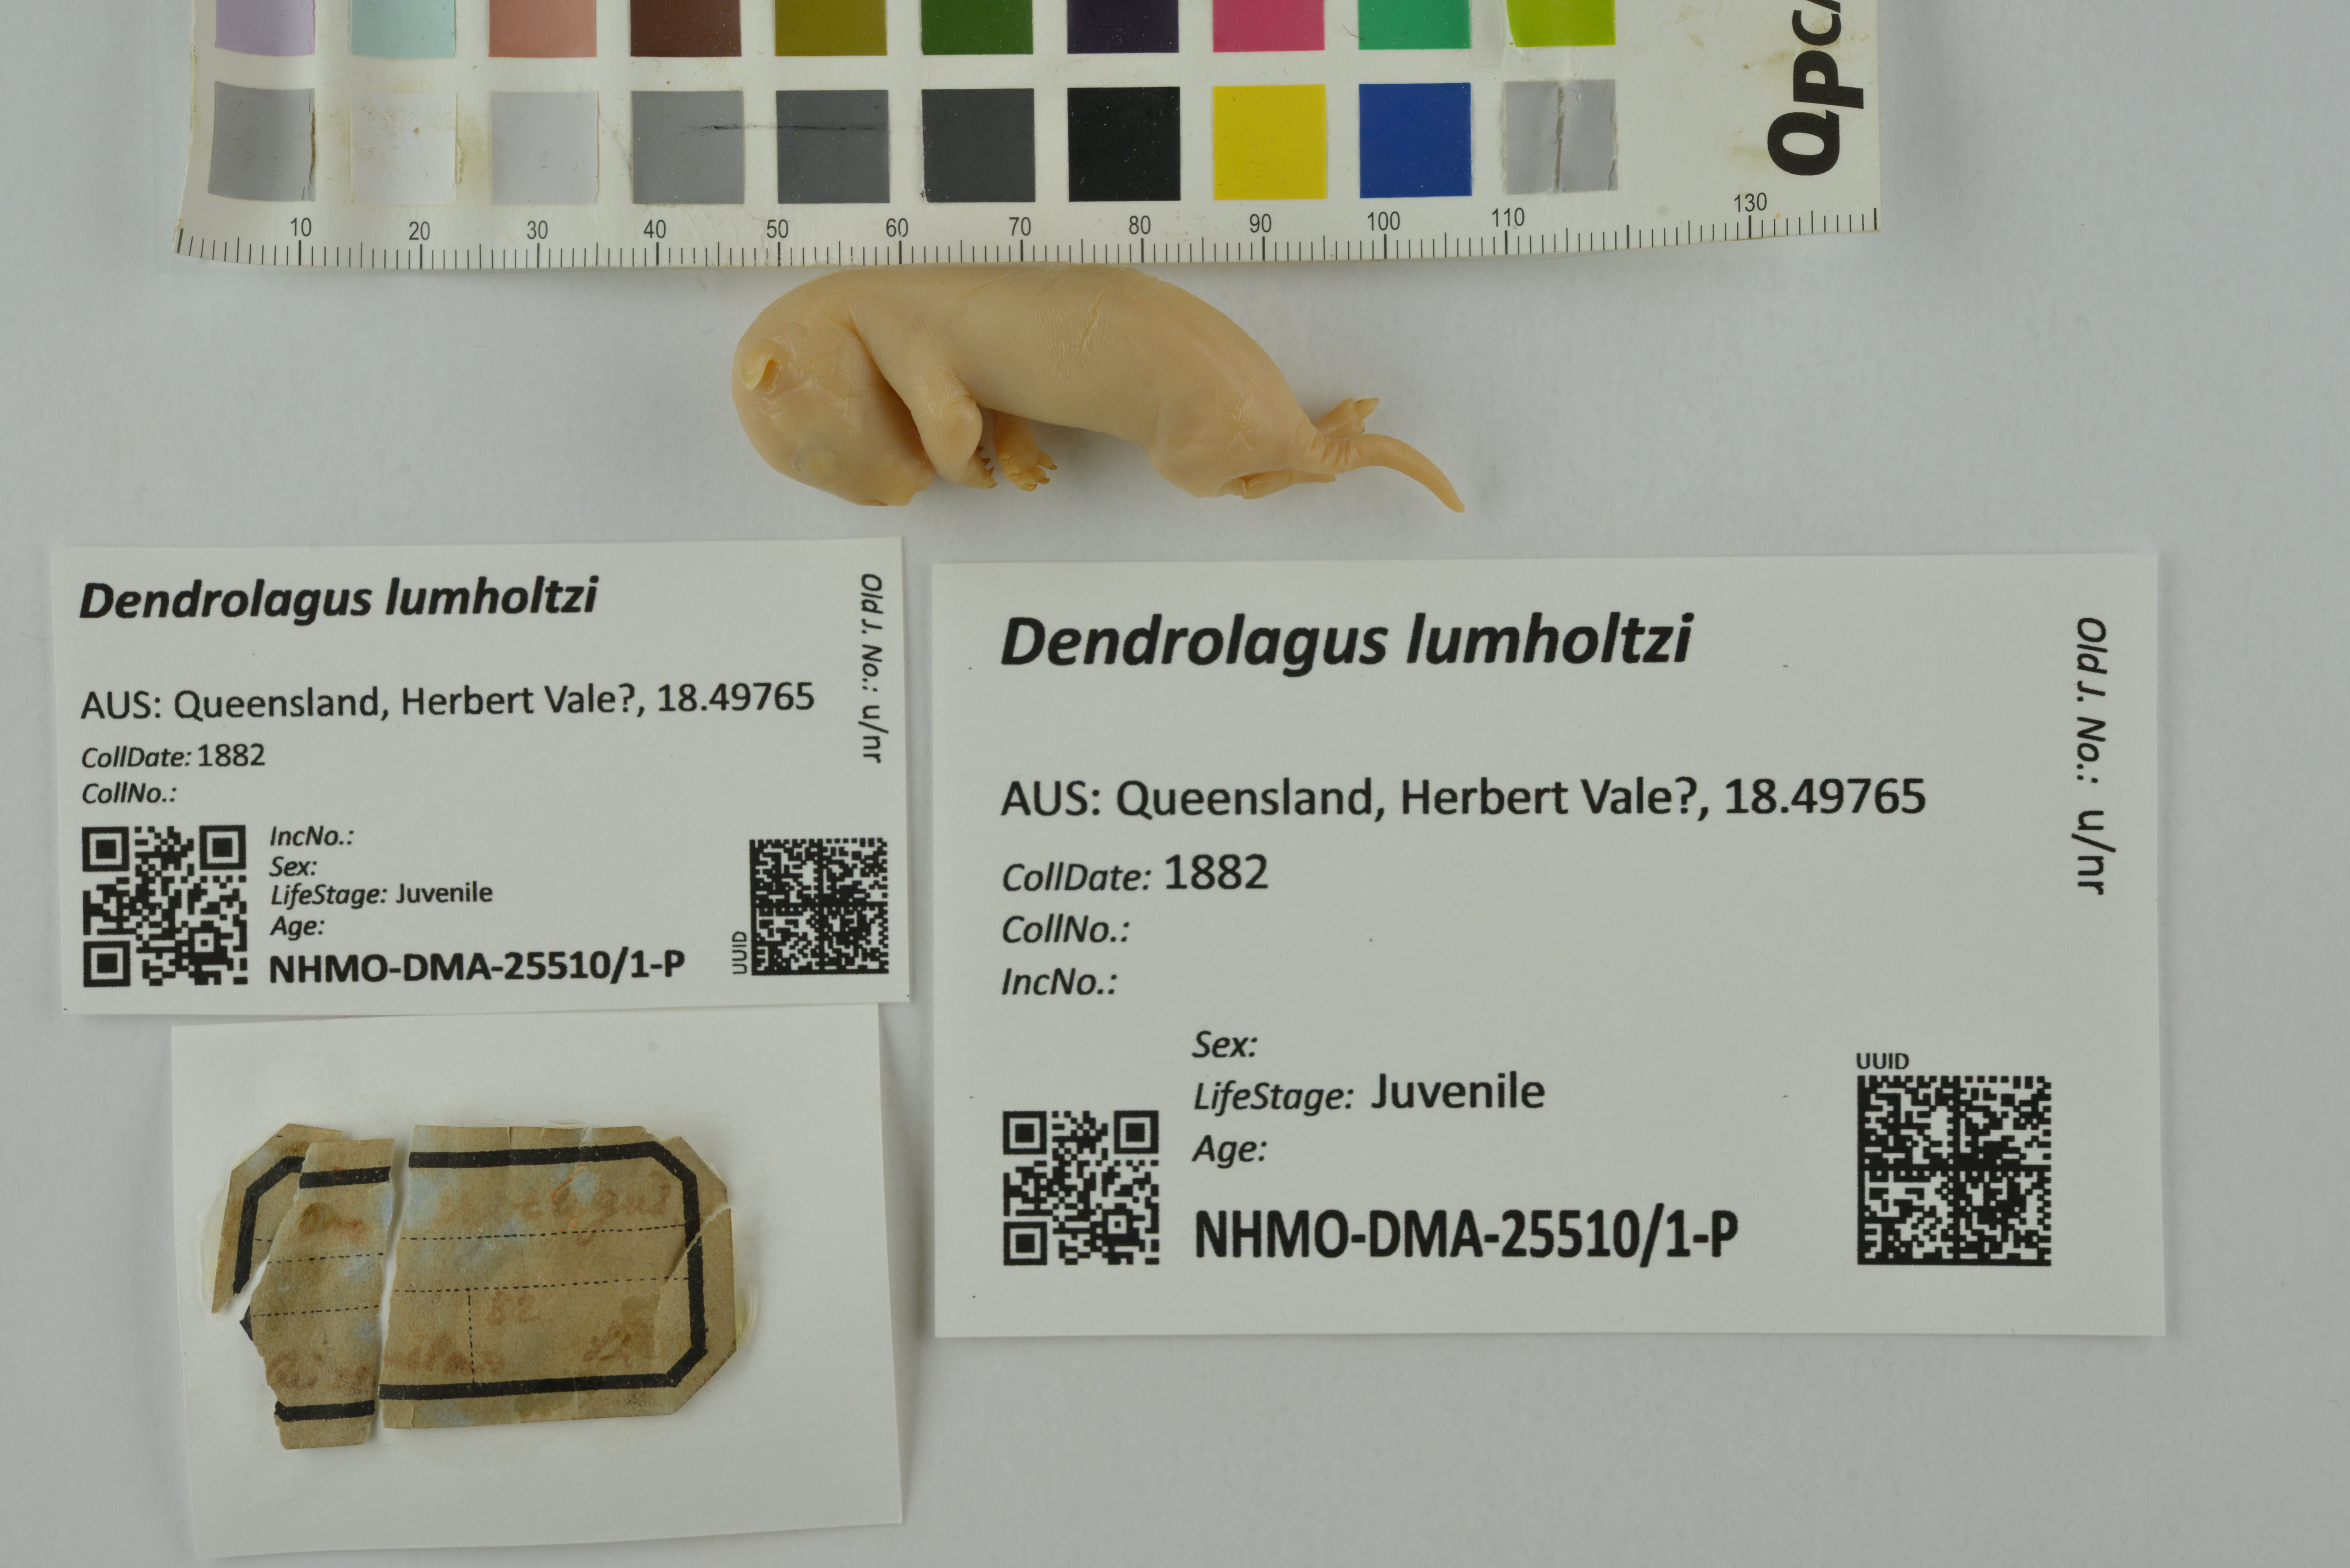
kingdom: Animalia
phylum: Chordata
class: Mammalia
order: Diprotodontia
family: Macropodidae
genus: Dendrolagus
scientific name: Dendrolagus lumholtzi
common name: Lumholtz's tree kangaroo
